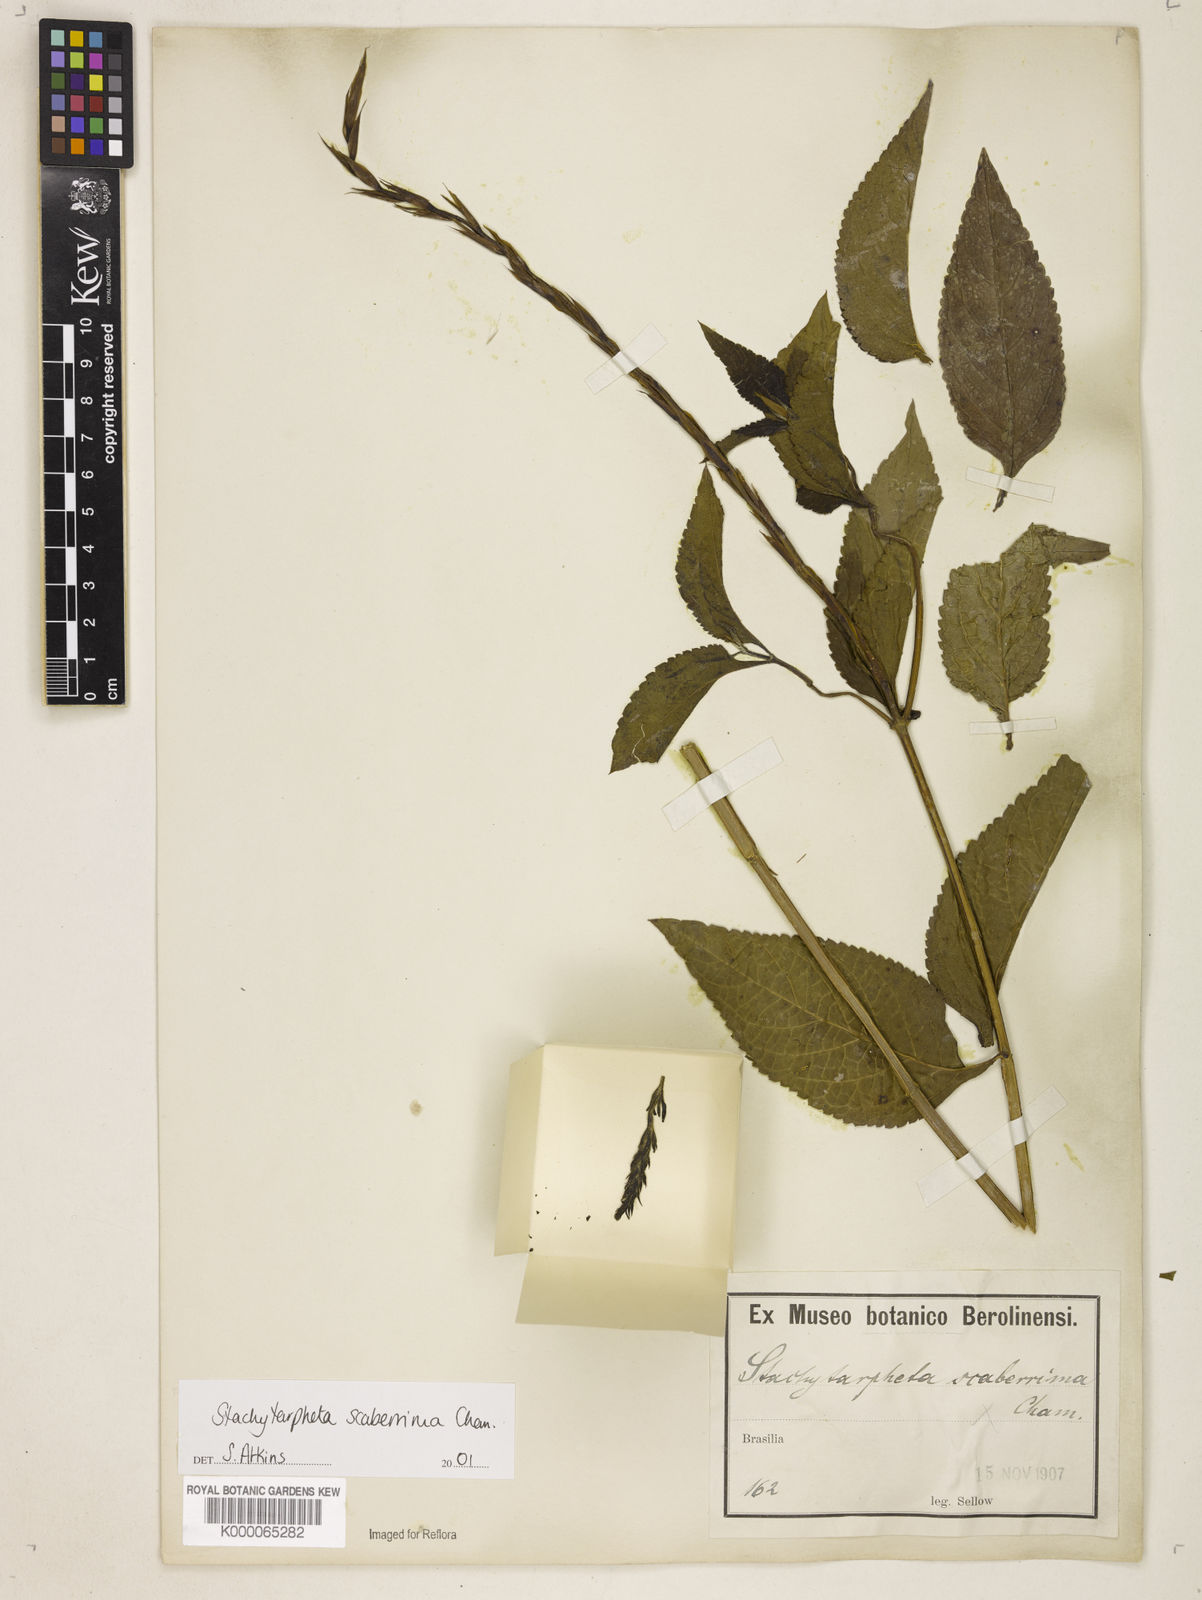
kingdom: Plantae
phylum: Tracheophyta
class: Magnoliopsida
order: Lamiales
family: Verbenaceae
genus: Stachytarpheta
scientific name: Stachytarpheta scaberrima
